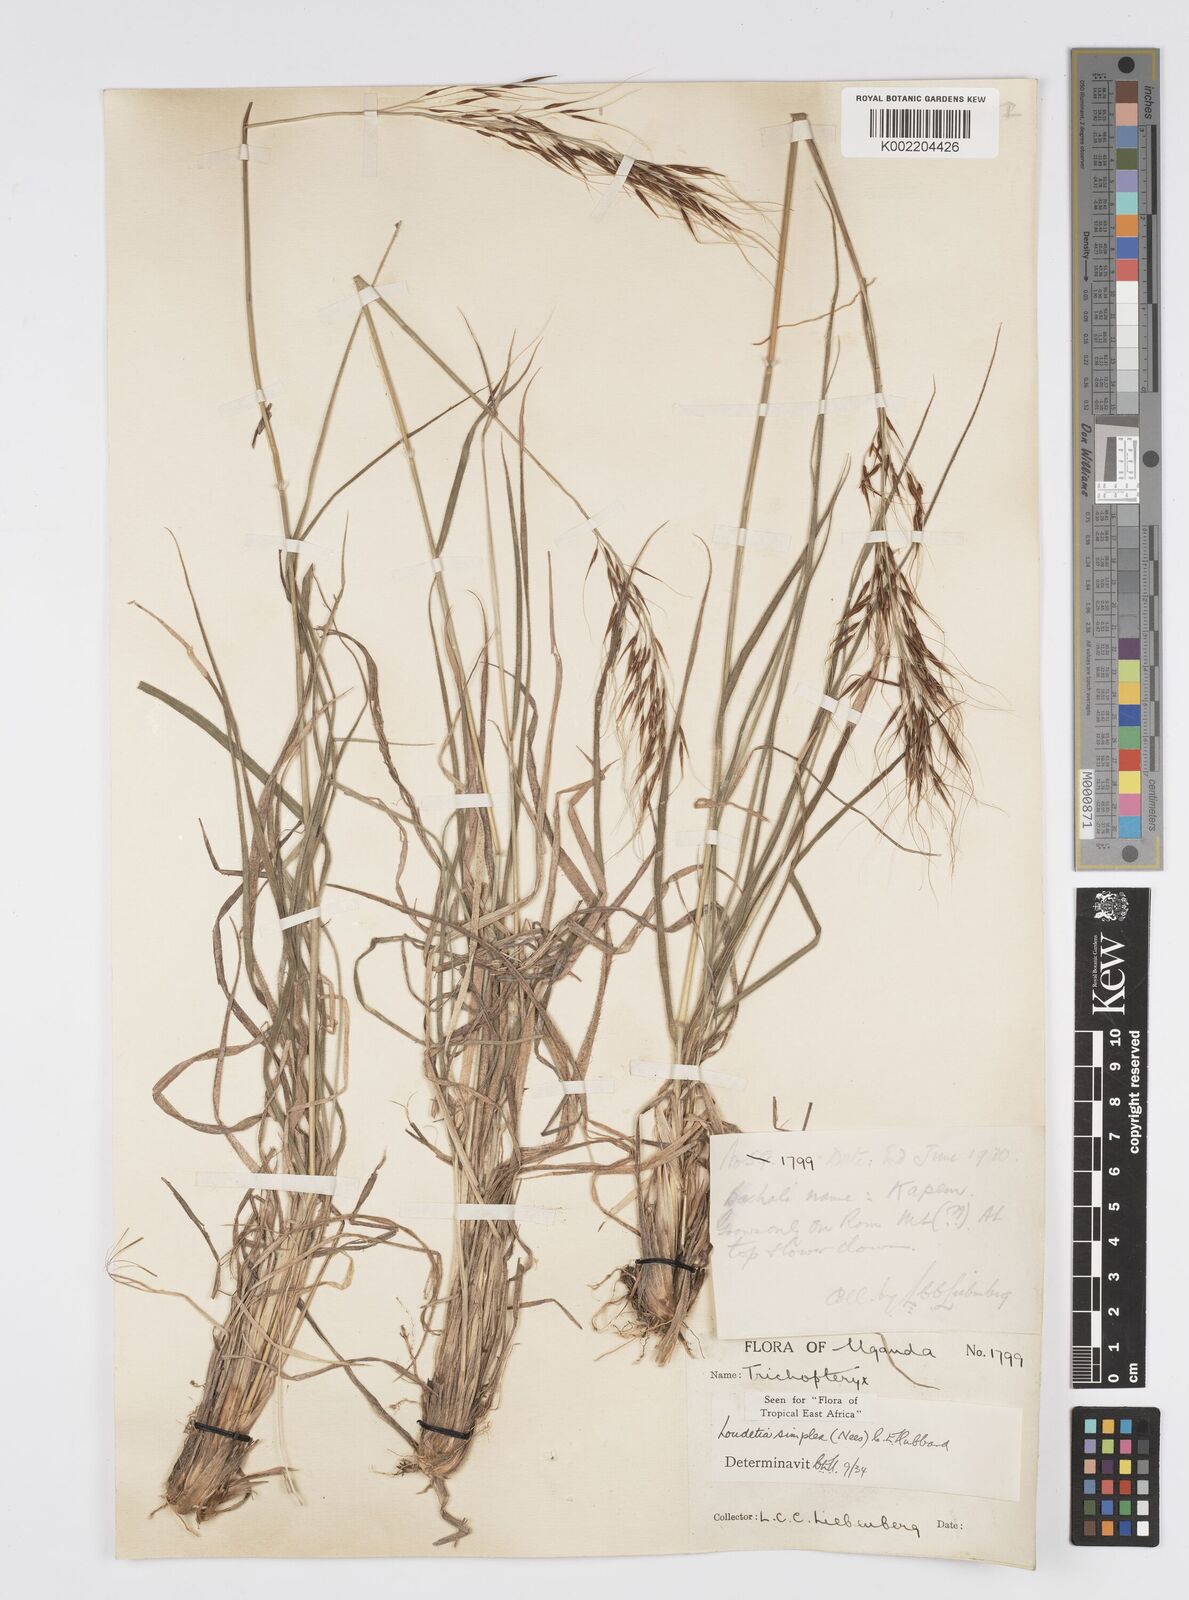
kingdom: Plantae
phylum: Tracheophyta
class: Liliopsida
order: Poales
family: Poaceae
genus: Loudetia
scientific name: Loudetia simplex
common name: Common russet grass
